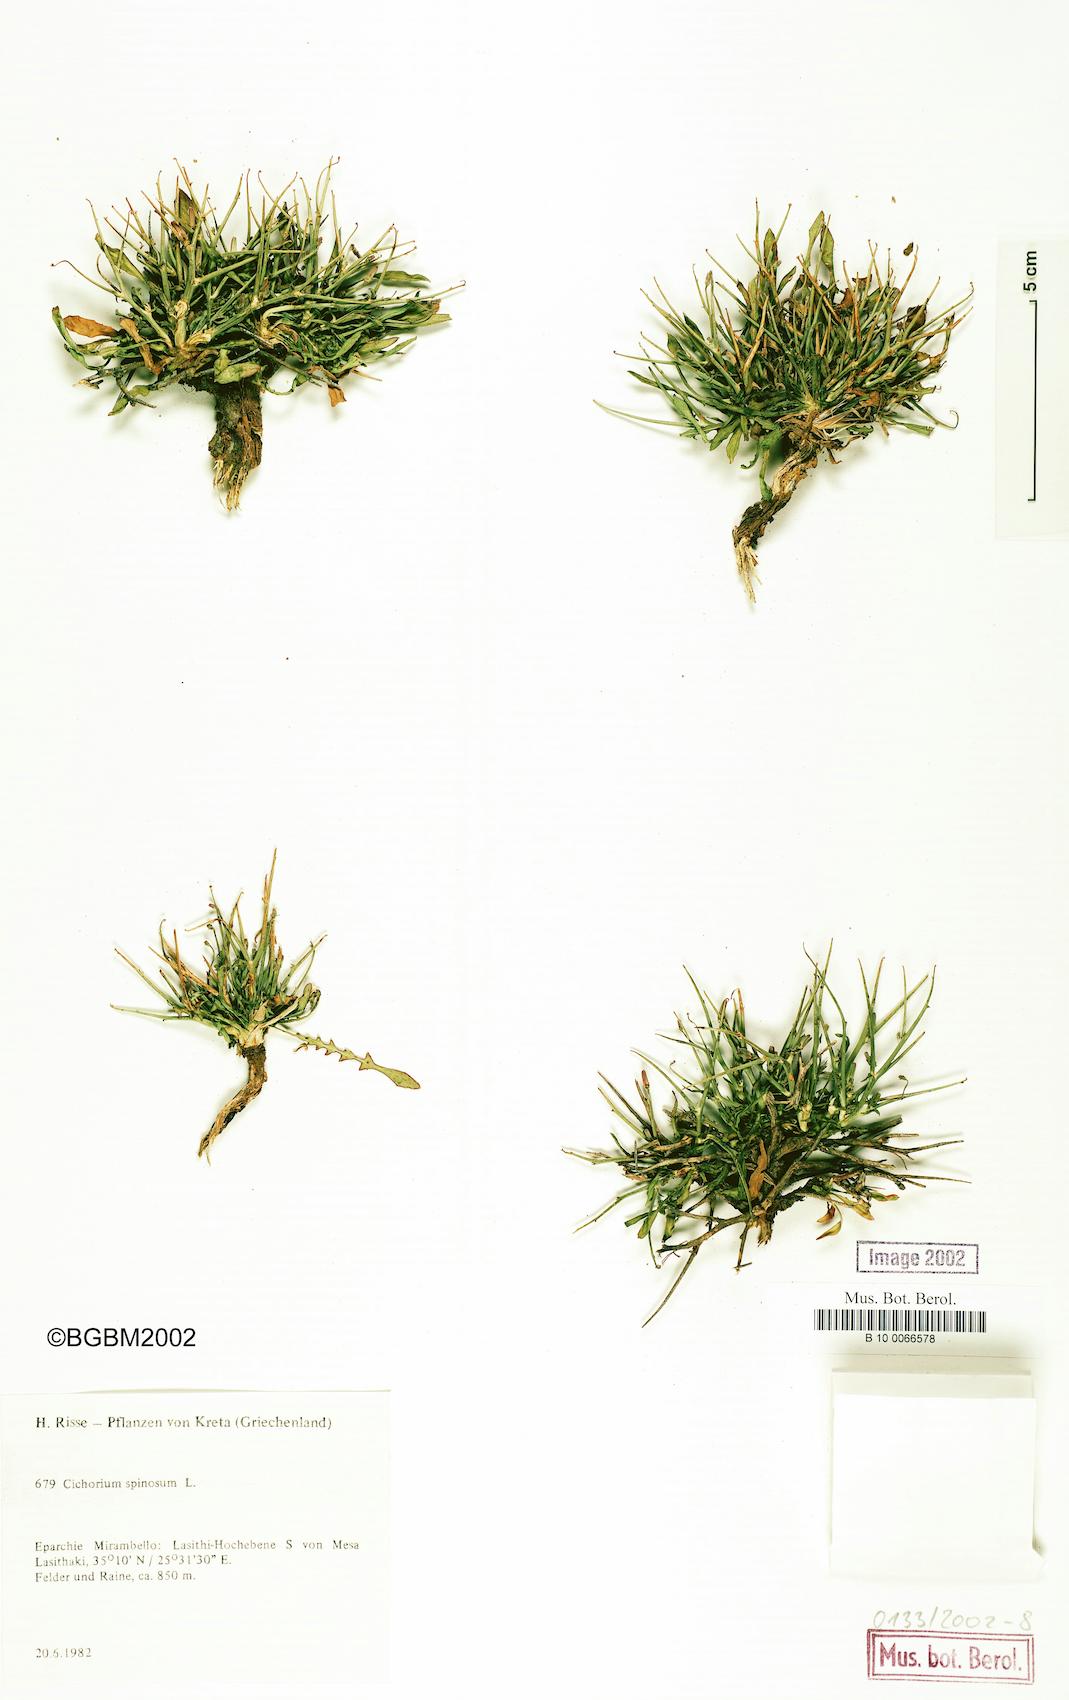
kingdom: Plantae
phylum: Tracheophyta
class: Magnoliopsida
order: Asterales
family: Asteraceae
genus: Cichorium
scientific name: Cichorium spinosum
